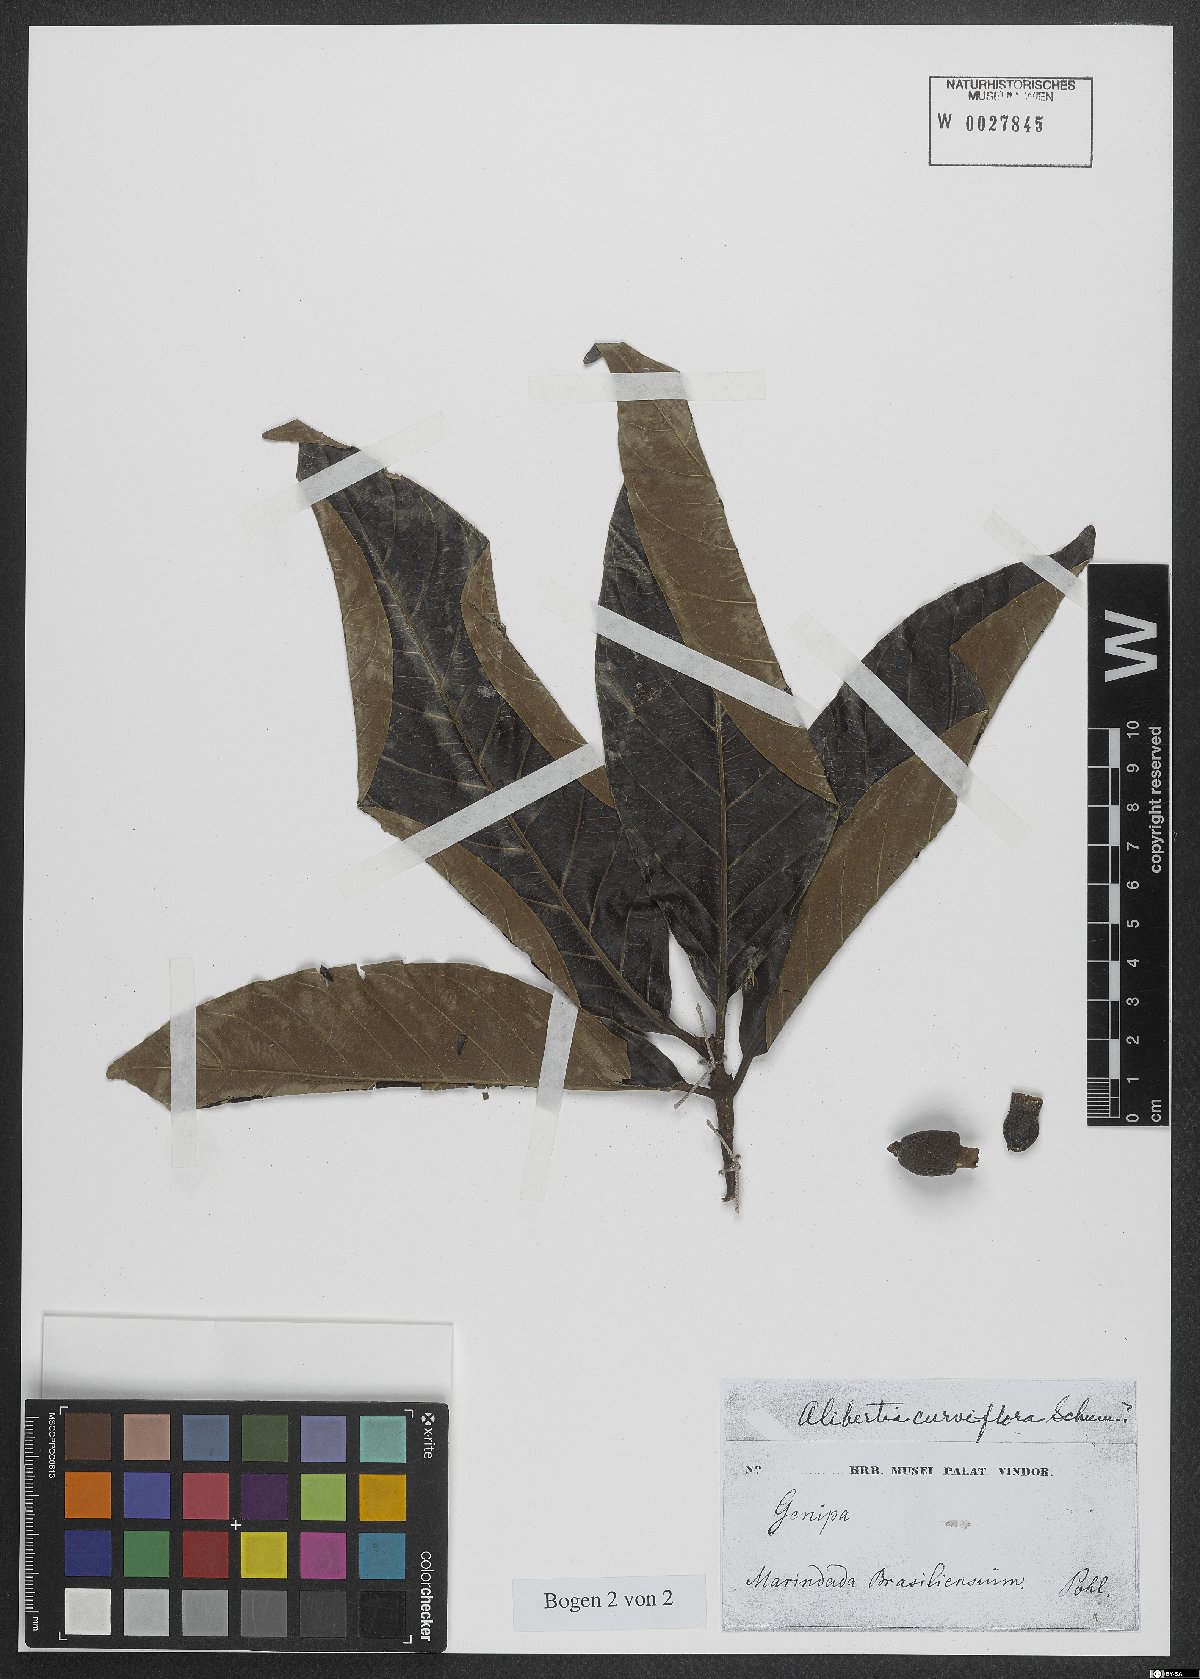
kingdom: Plantae
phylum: Tracheophyta
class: Magnoliopsida
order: Gentianales
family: Rubiaceae
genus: Alibertia
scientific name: Alibertia curviflora
